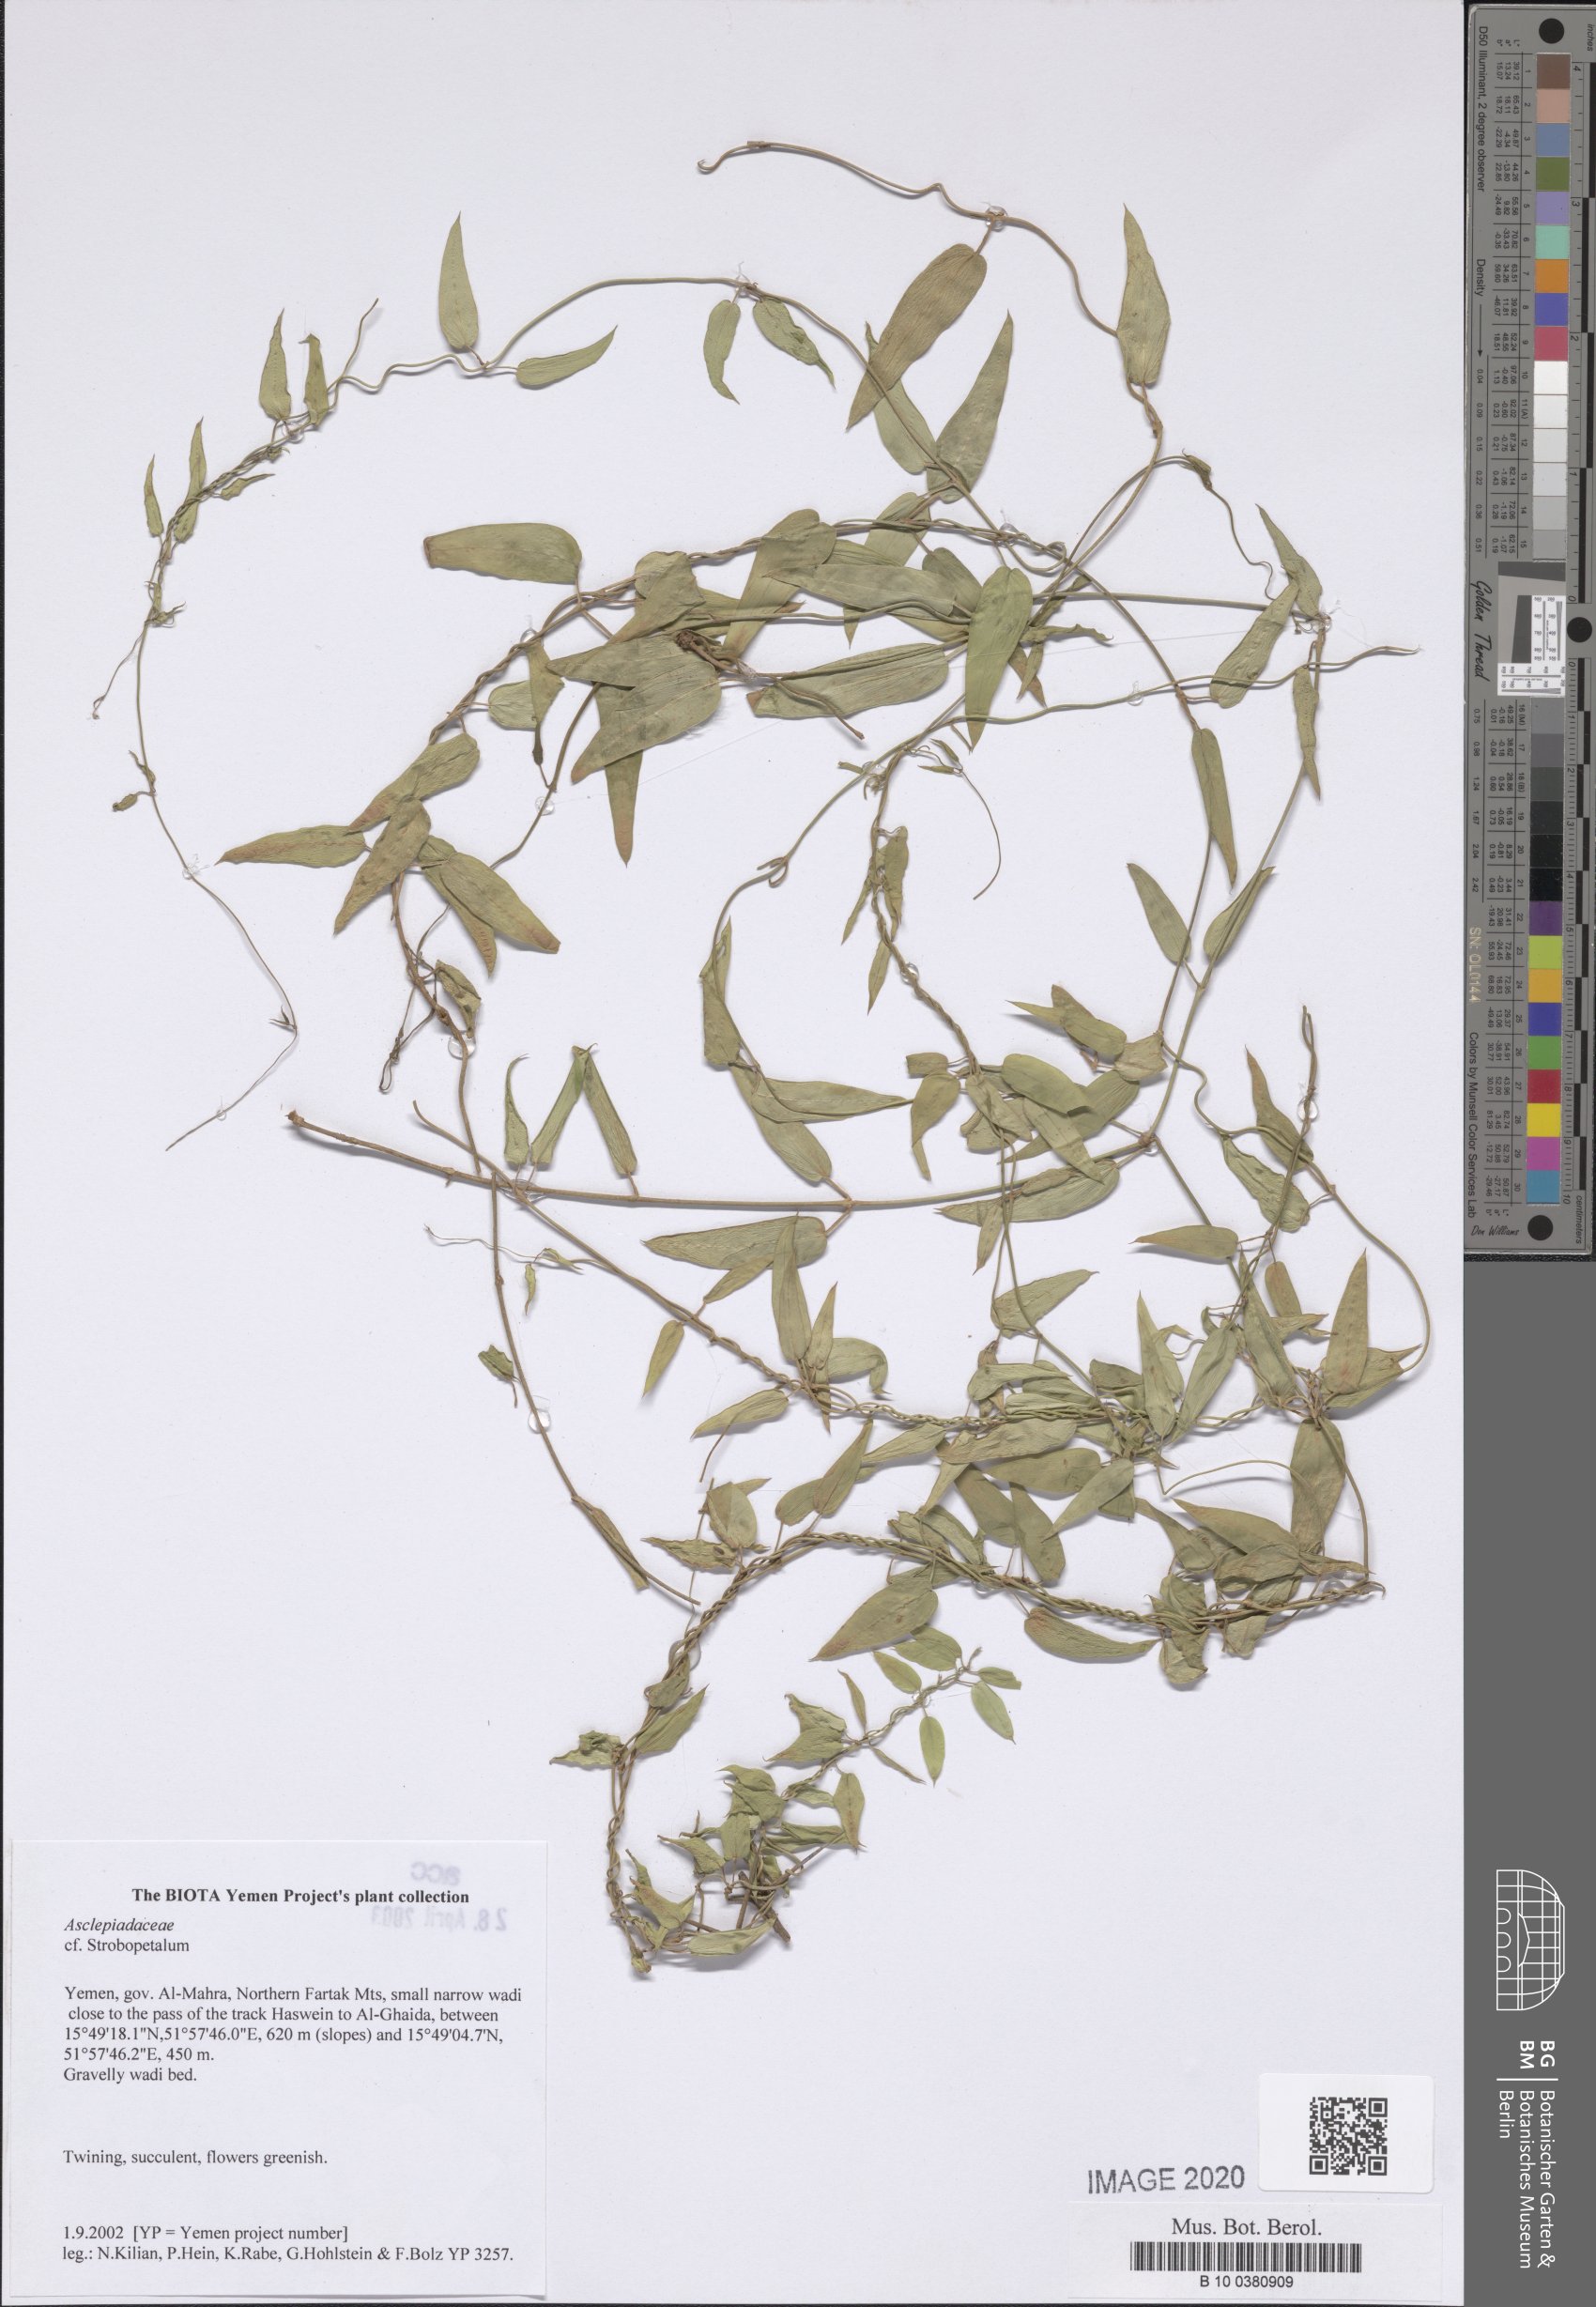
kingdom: Plantae
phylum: Tracheophyta
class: Magnoliopsida
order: Gentianales
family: Apocynaceae
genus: Pentatropis
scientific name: Pentatropis
